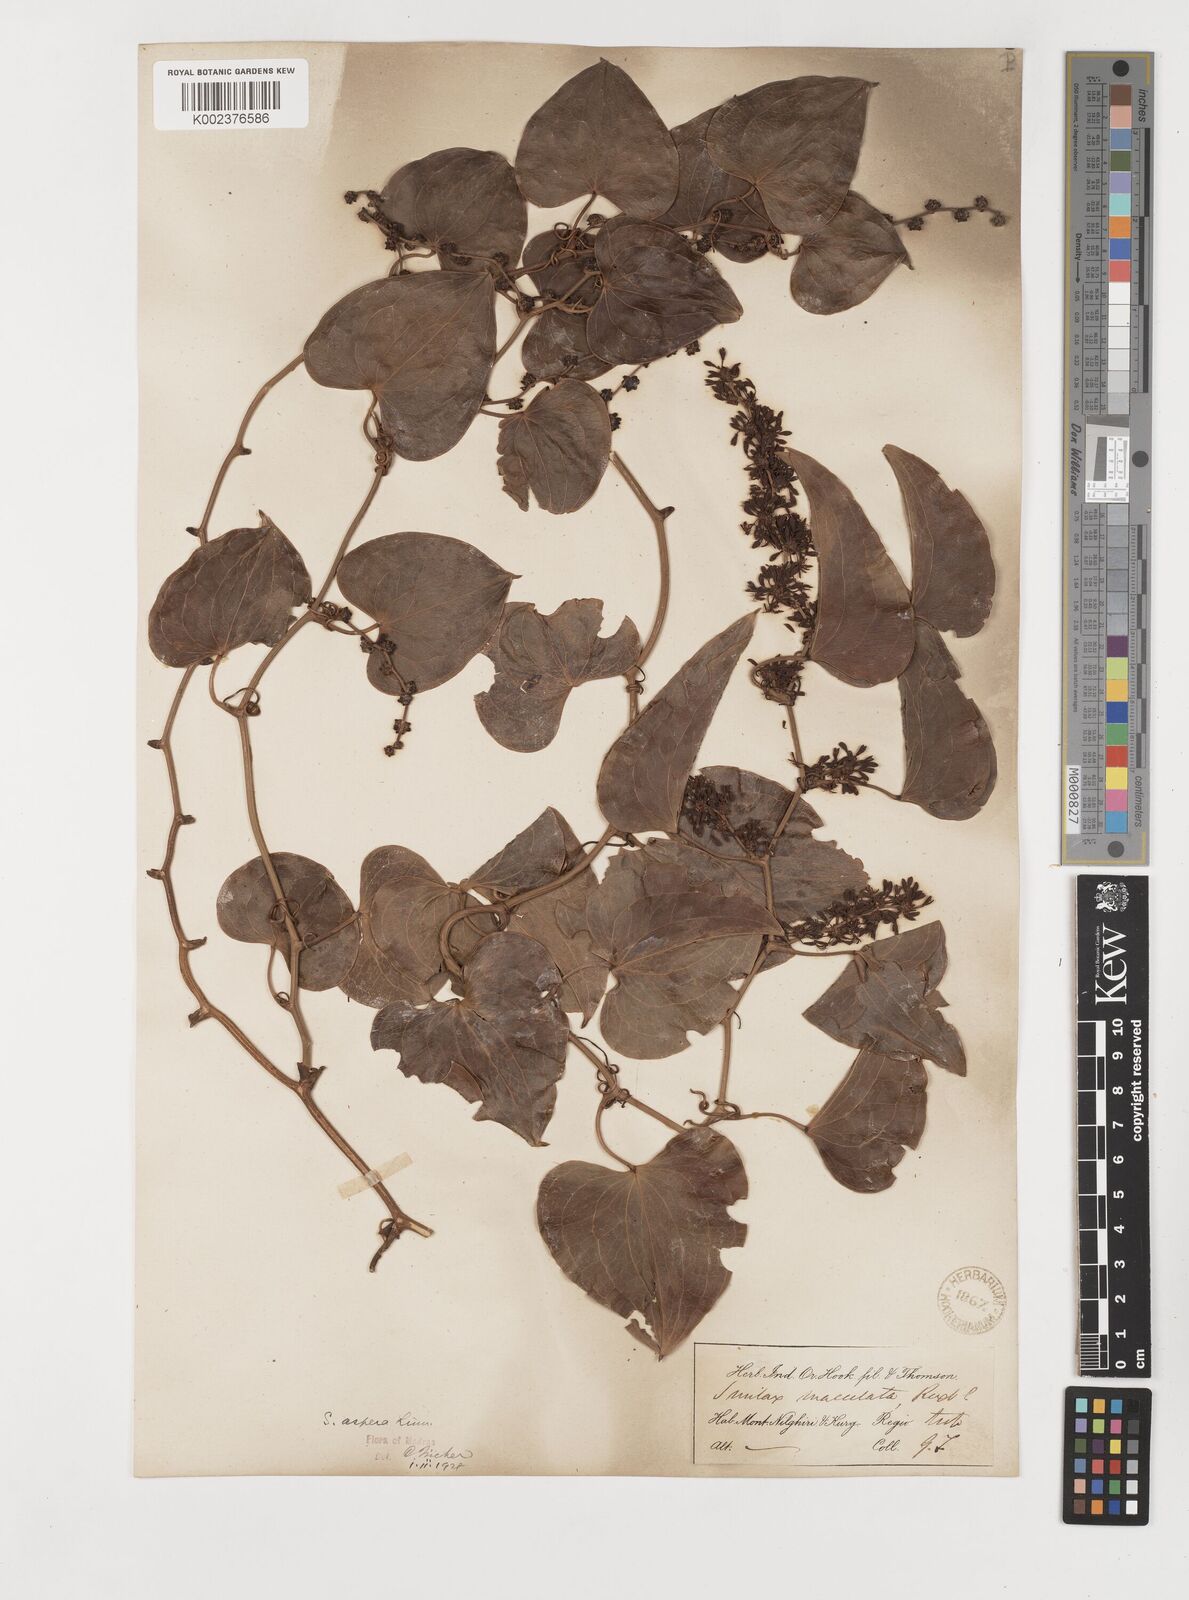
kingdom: Plantae
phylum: Tracheophyta
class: Liliopsida
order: Liliales
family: Smilacaceae
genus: Smilax
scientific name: Smilax aspera
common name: Common smilax
